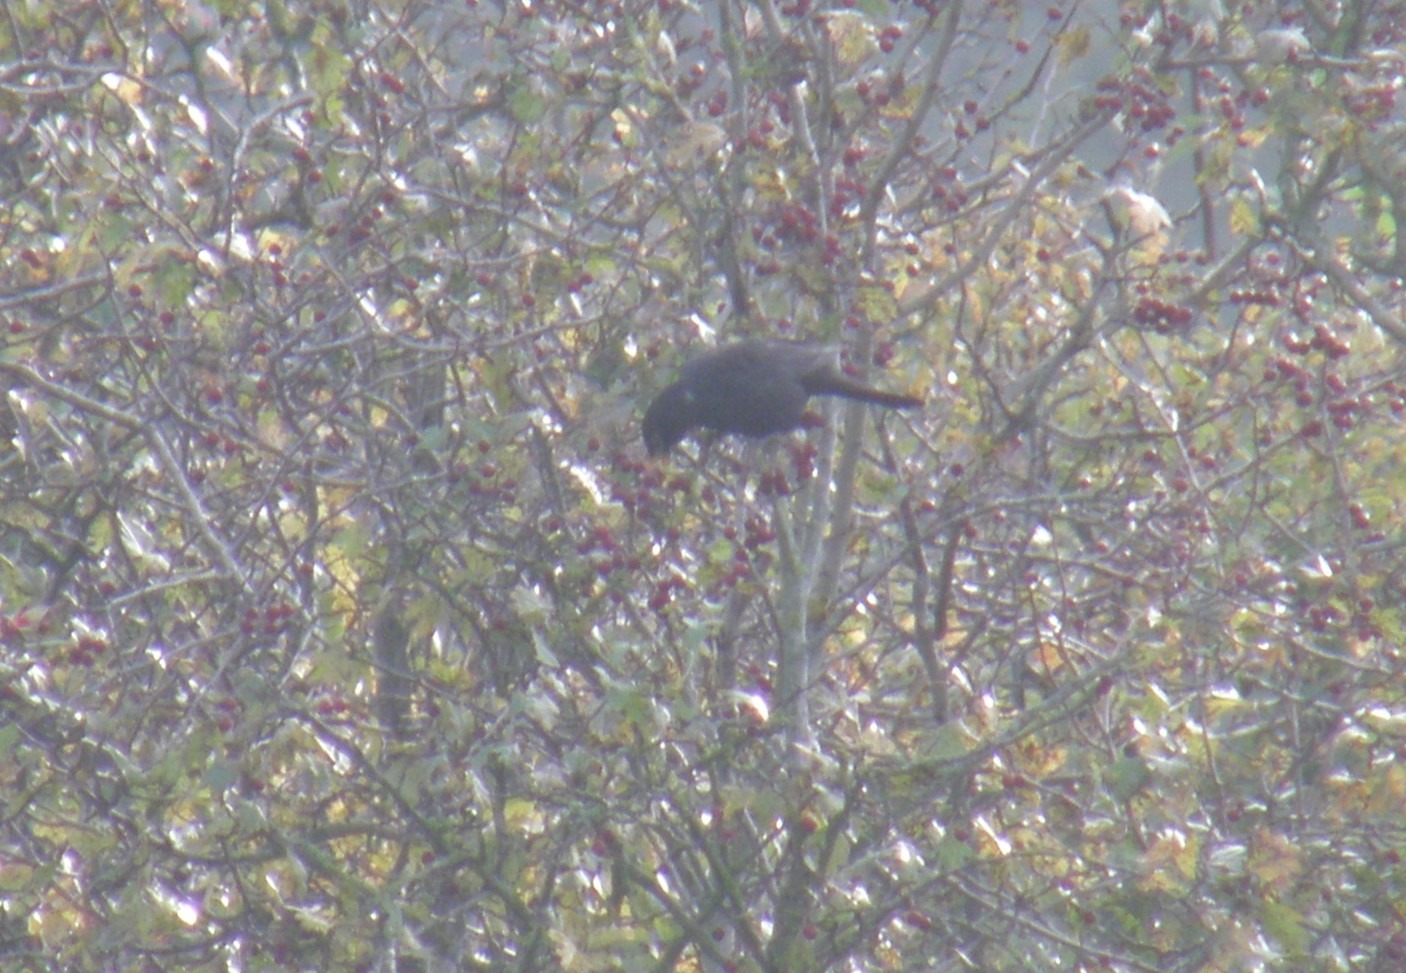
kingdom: Animalia
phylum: Chordata
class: Aves
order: Passeriformes
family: Turdidae
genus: Turdus
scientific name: Turdus merula
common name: Solsort
